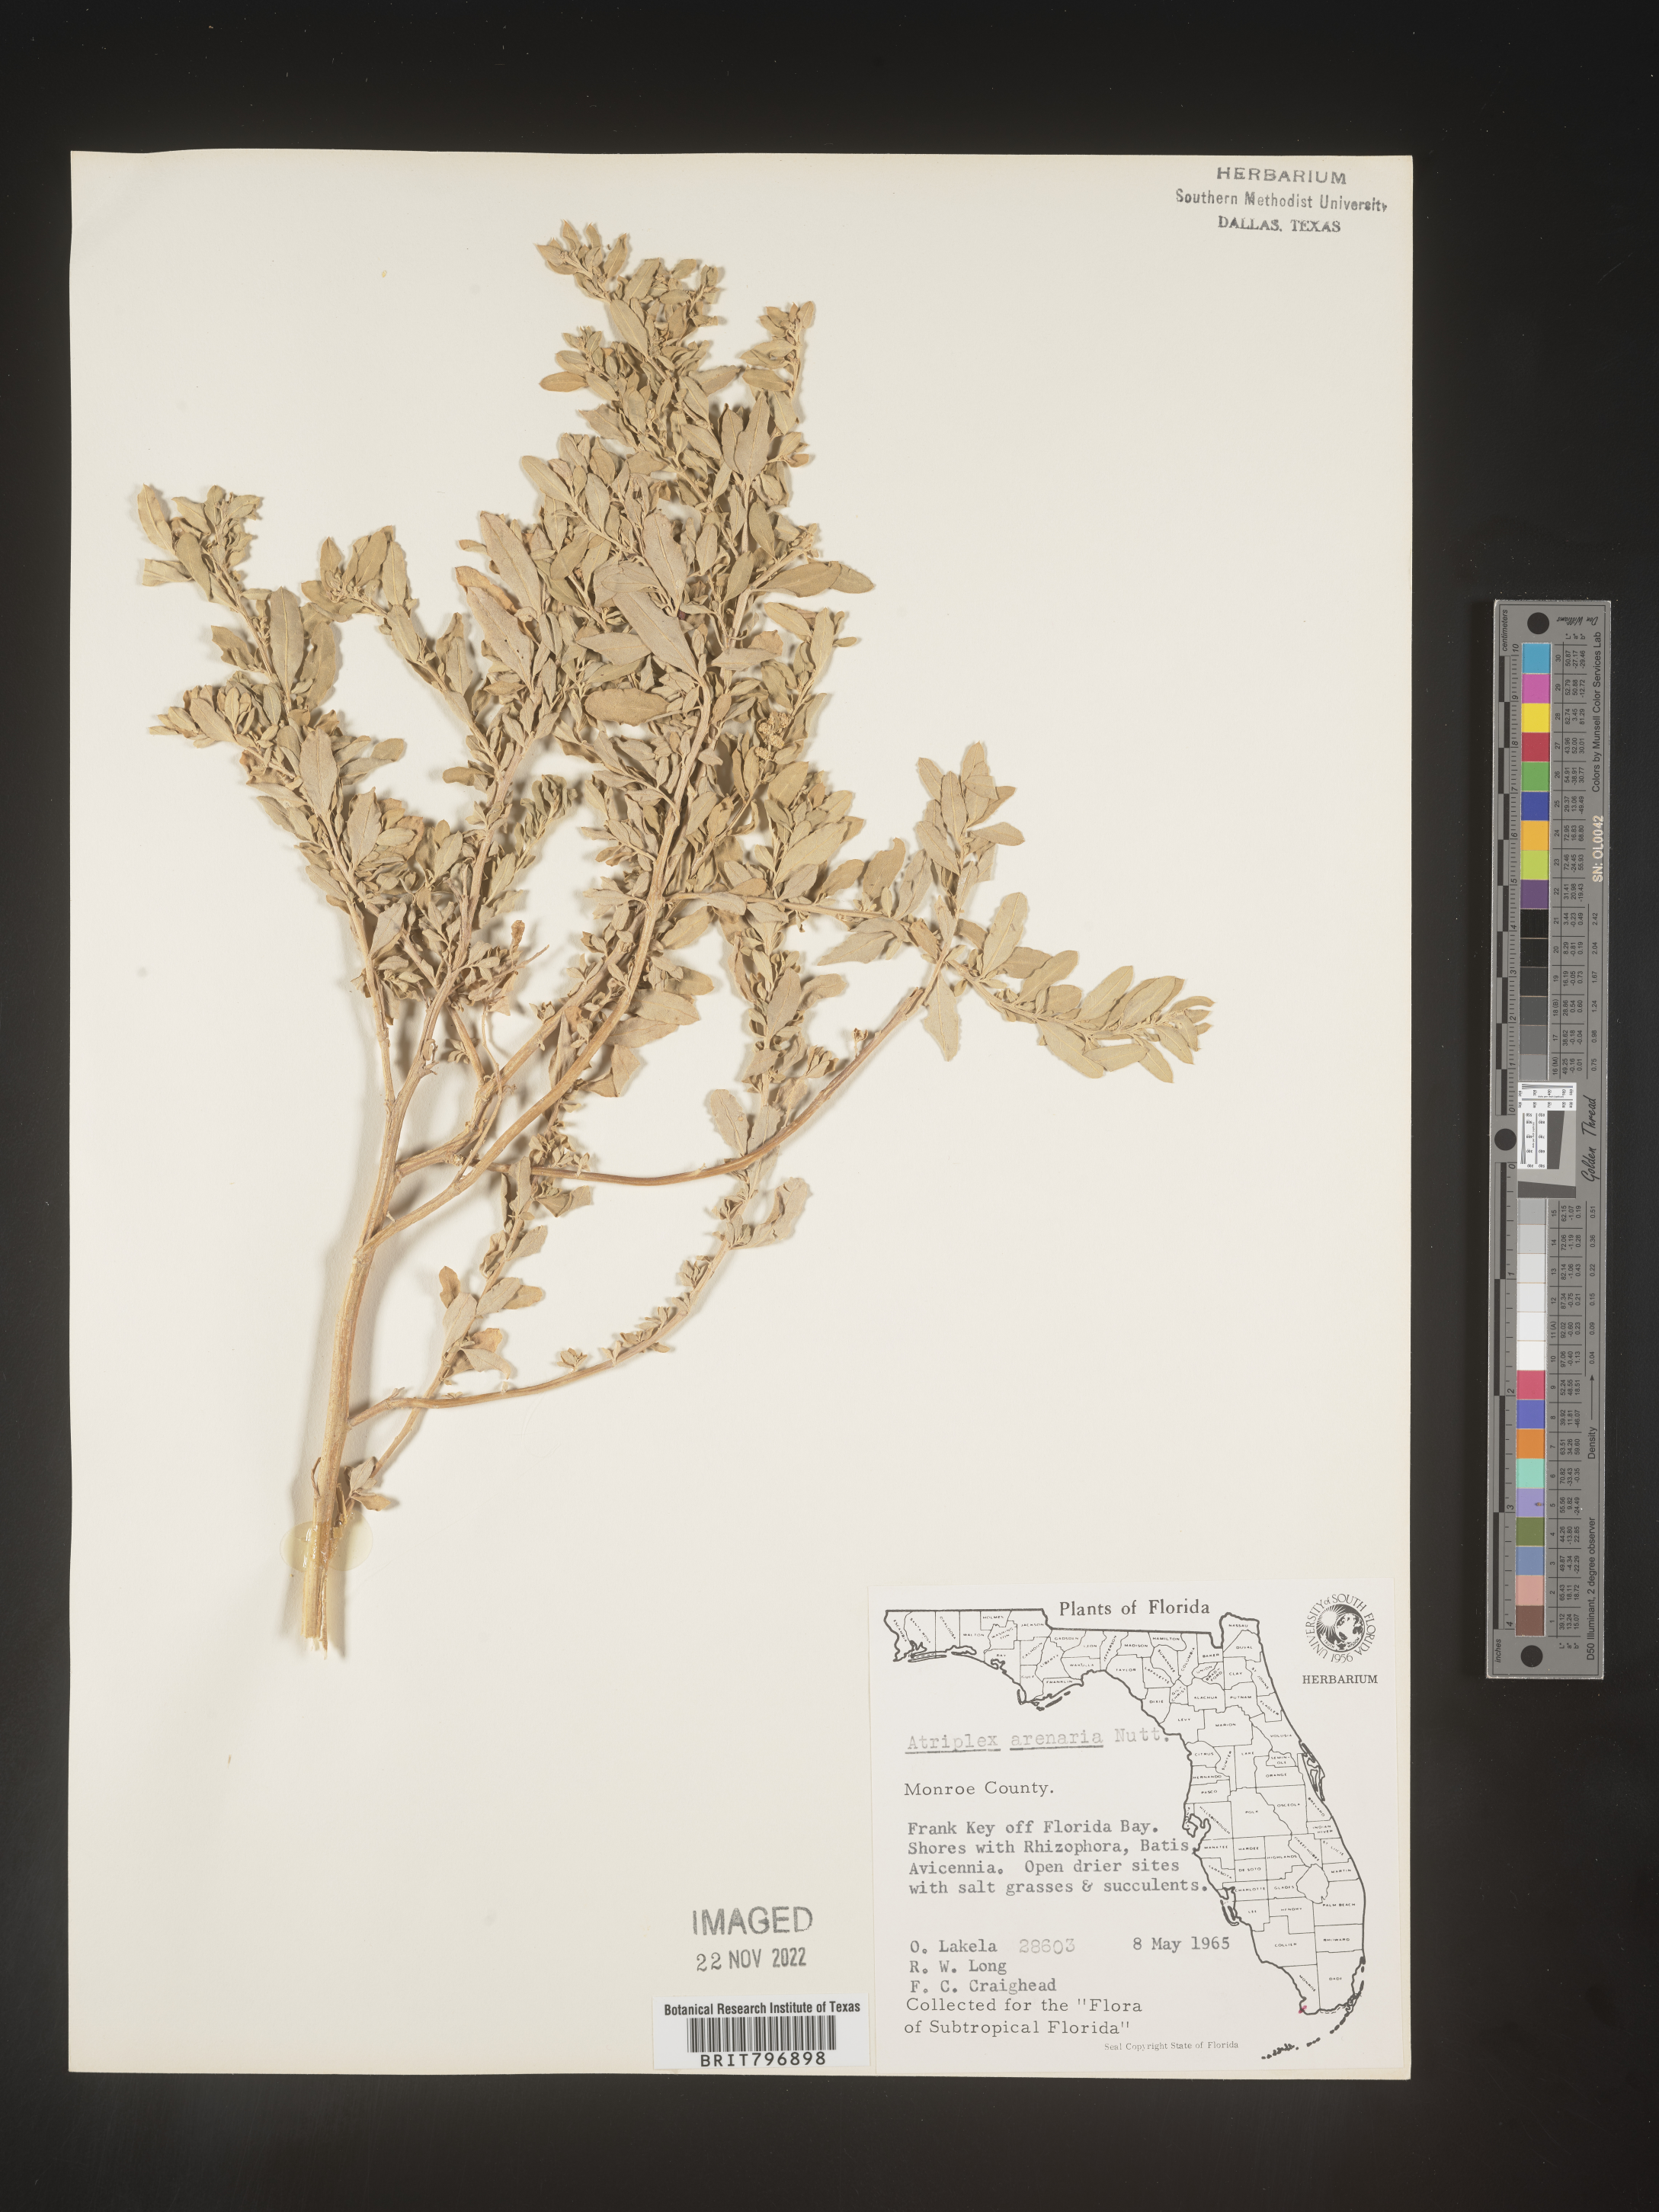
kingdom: Plantae
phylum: Tracheophyta
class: Magnoliopsida
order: Caryophyllales
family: Amaranthaceae
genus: Atriplex
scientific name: Atriplex mucronata
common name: Quelite
